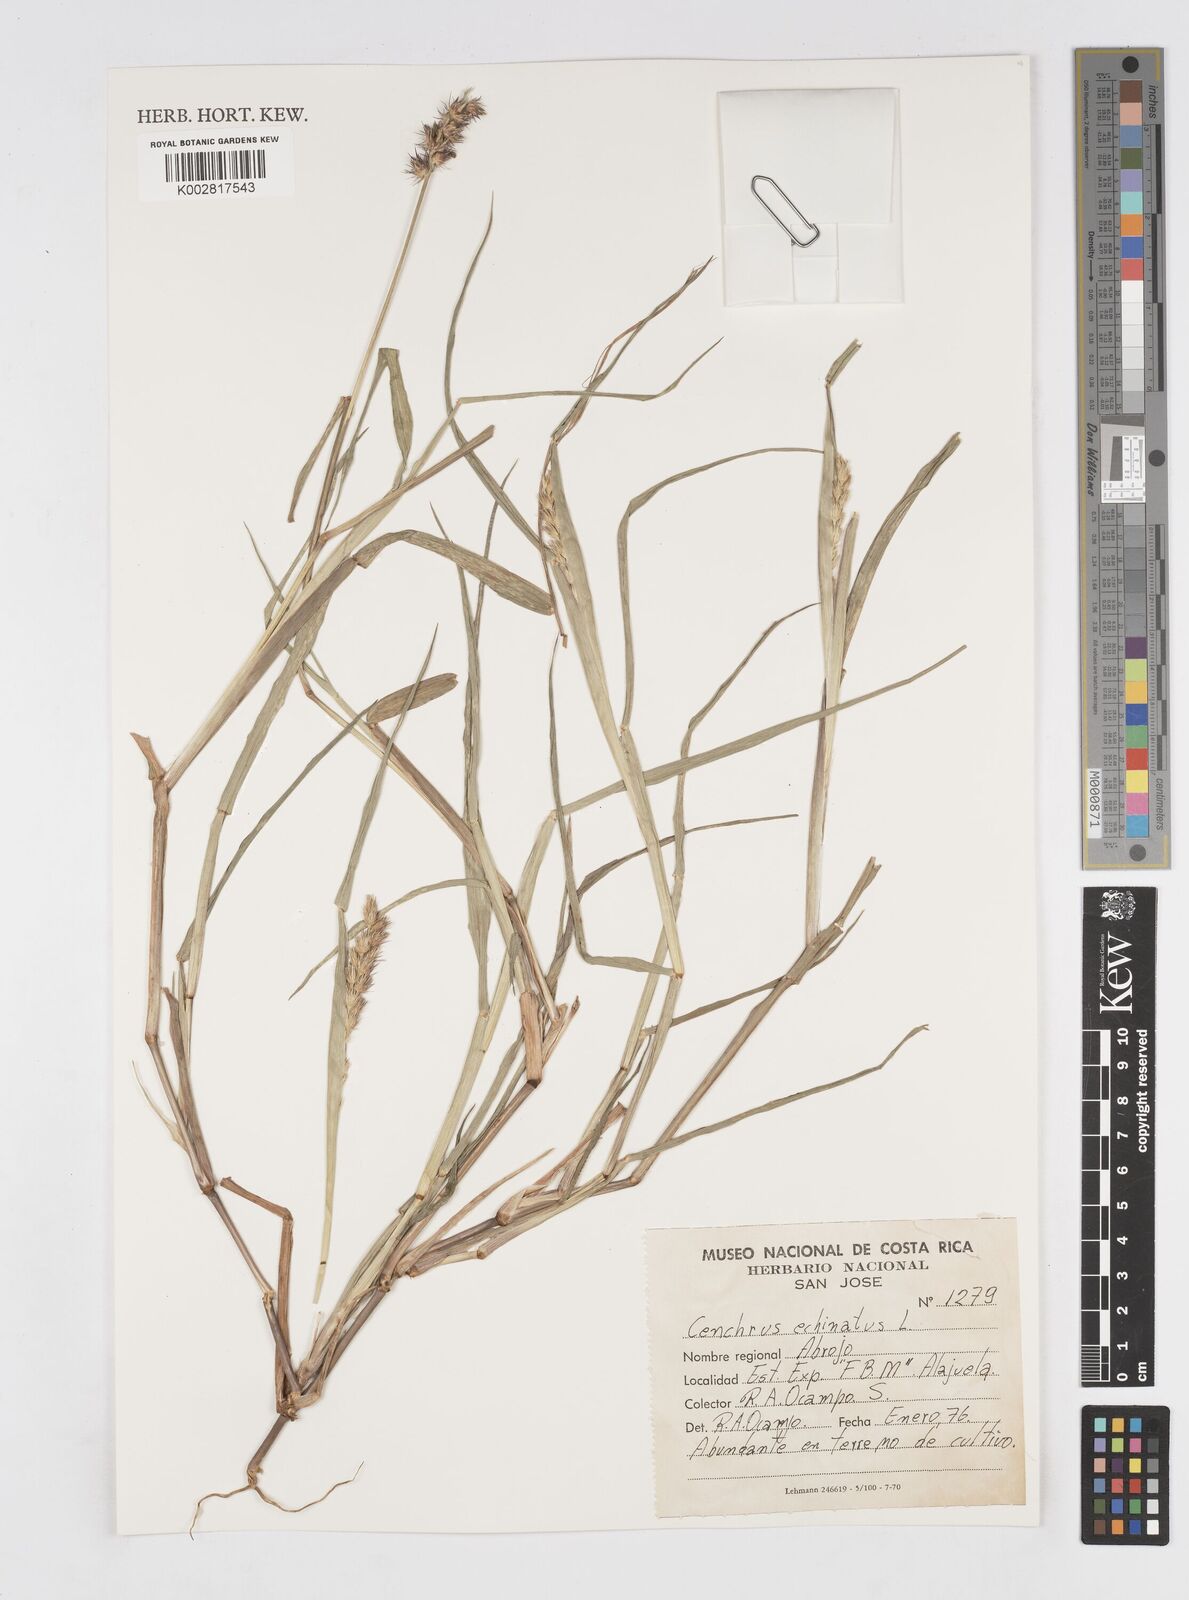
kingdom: Plantae
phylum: Tracheophyta
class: Liliopsida
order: Poales
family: Poaceae
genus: Cenchrus
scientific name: Cenchrus
